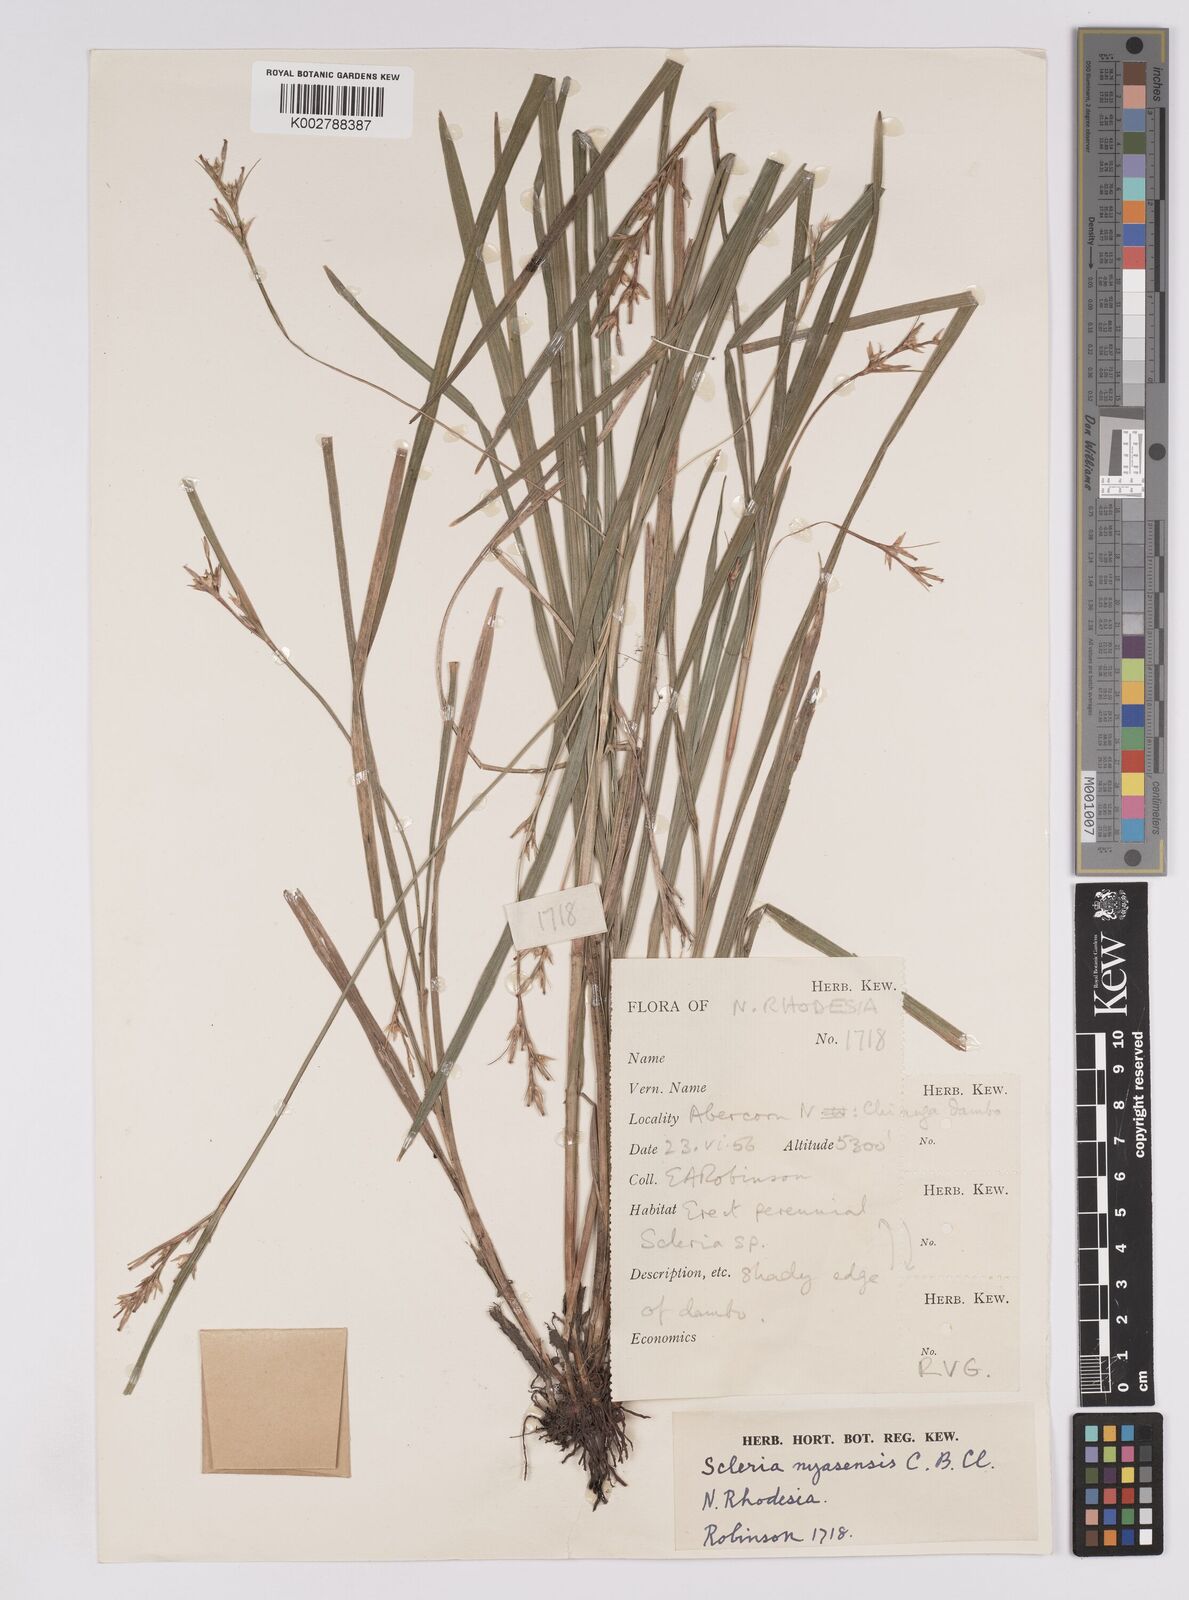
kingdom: Plantae
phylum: Tracheophyta
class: Liliopsida
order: Poales
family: Cyperaceae
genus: Scleria
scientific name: Scleria nyasensis
